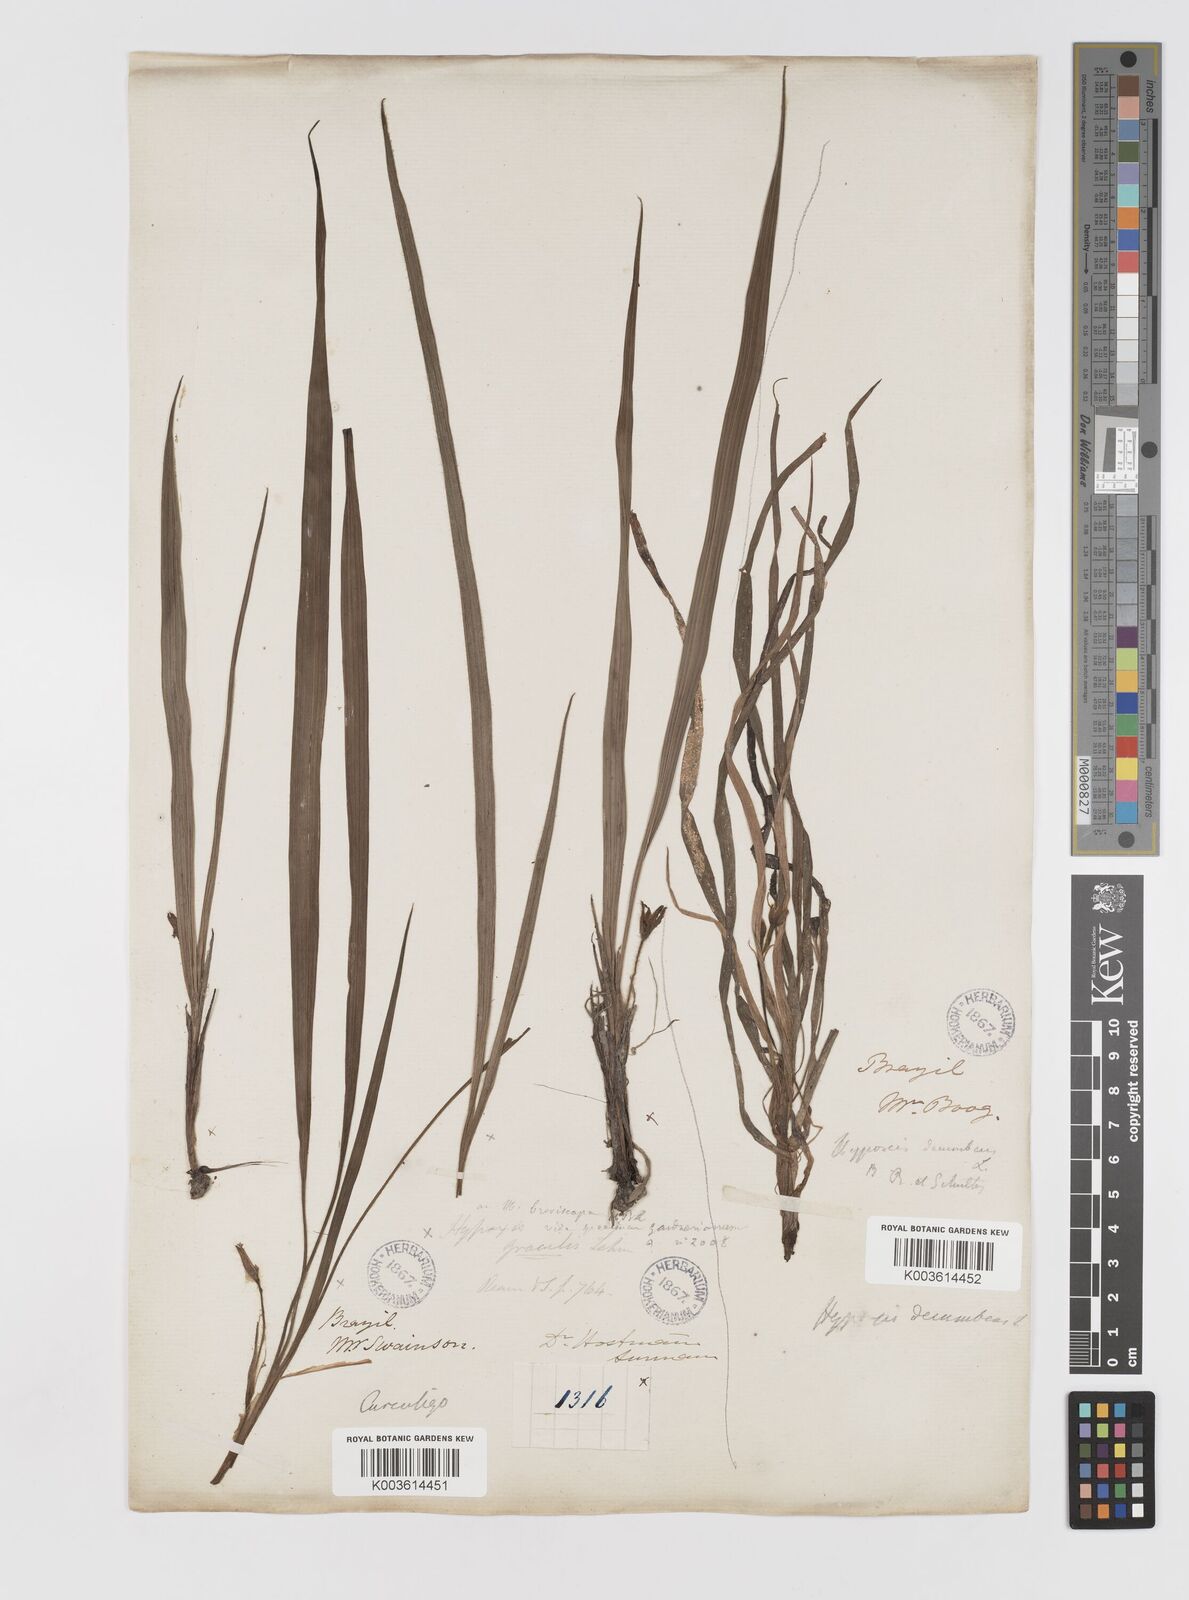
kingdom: Plantae
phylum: Tracheophyta
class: Liliopsida
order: Asparagales
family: Hypoxidaceae
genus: Curculigo
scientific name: Curculigo scorzonerifolia
